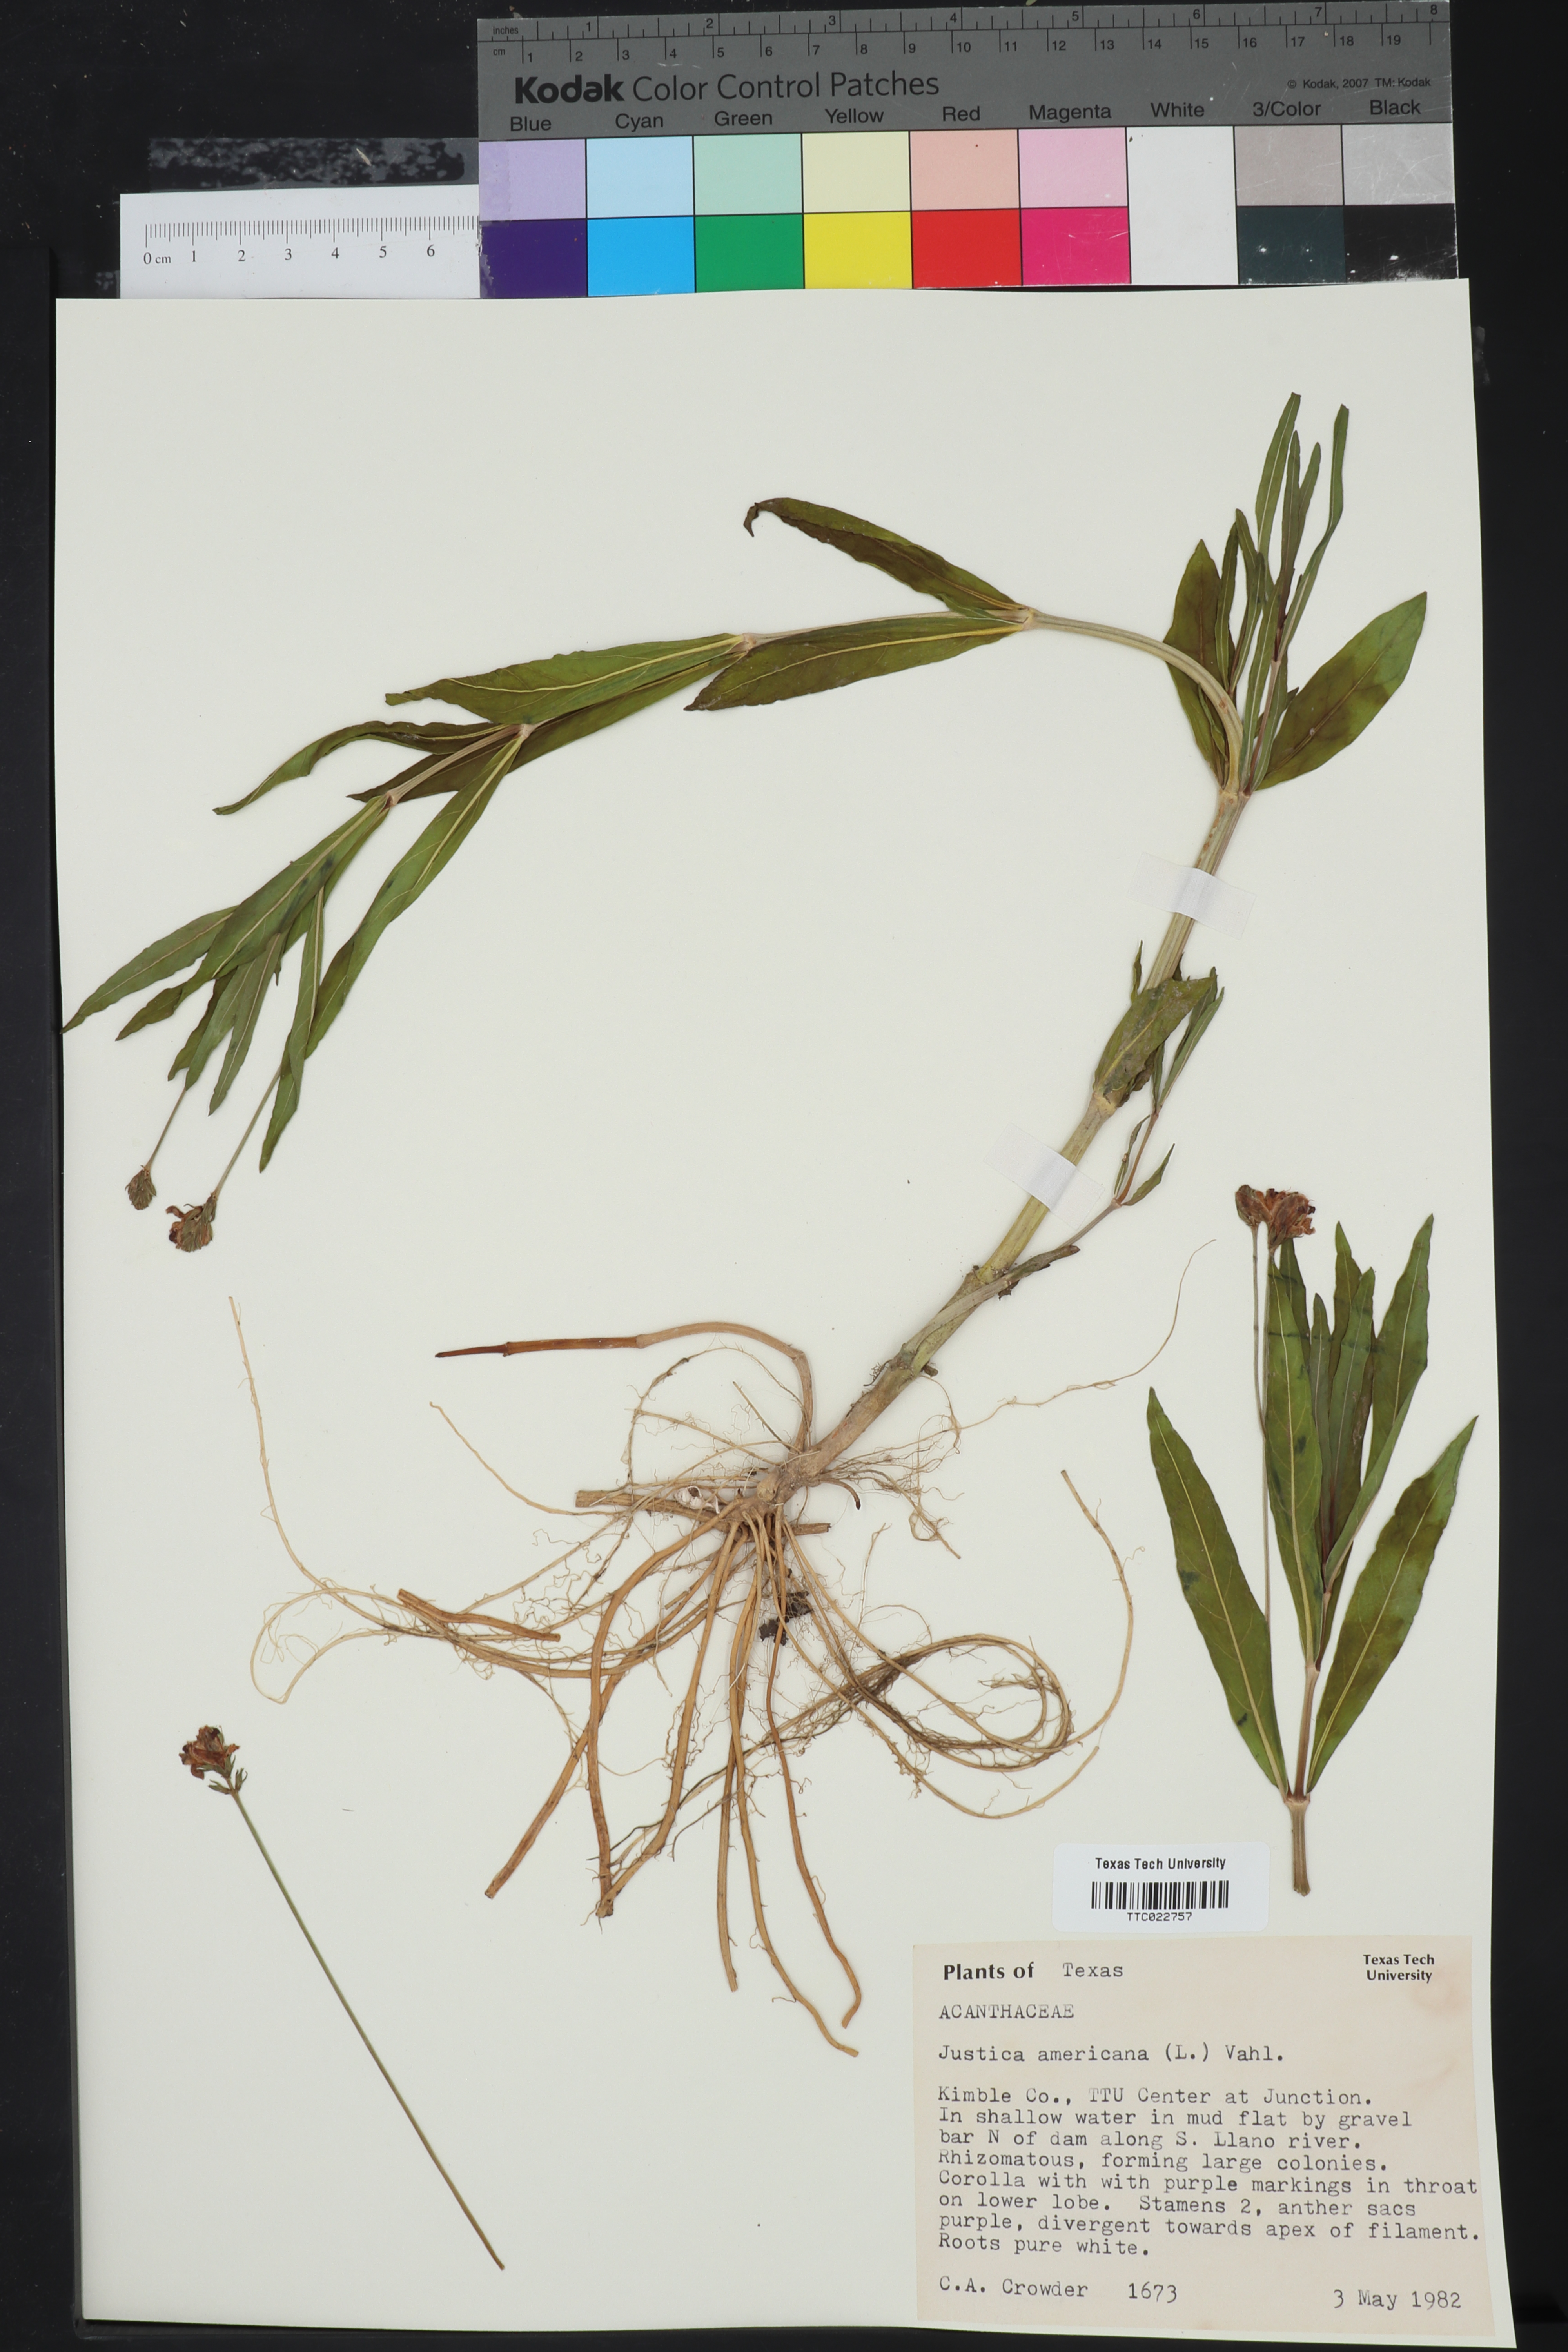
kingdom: Plantae
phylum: Tracheophyta
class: Magnoliopsida
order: Lamiales
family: Acanthaceae
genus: Dianthera
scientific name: Dianthera americana
